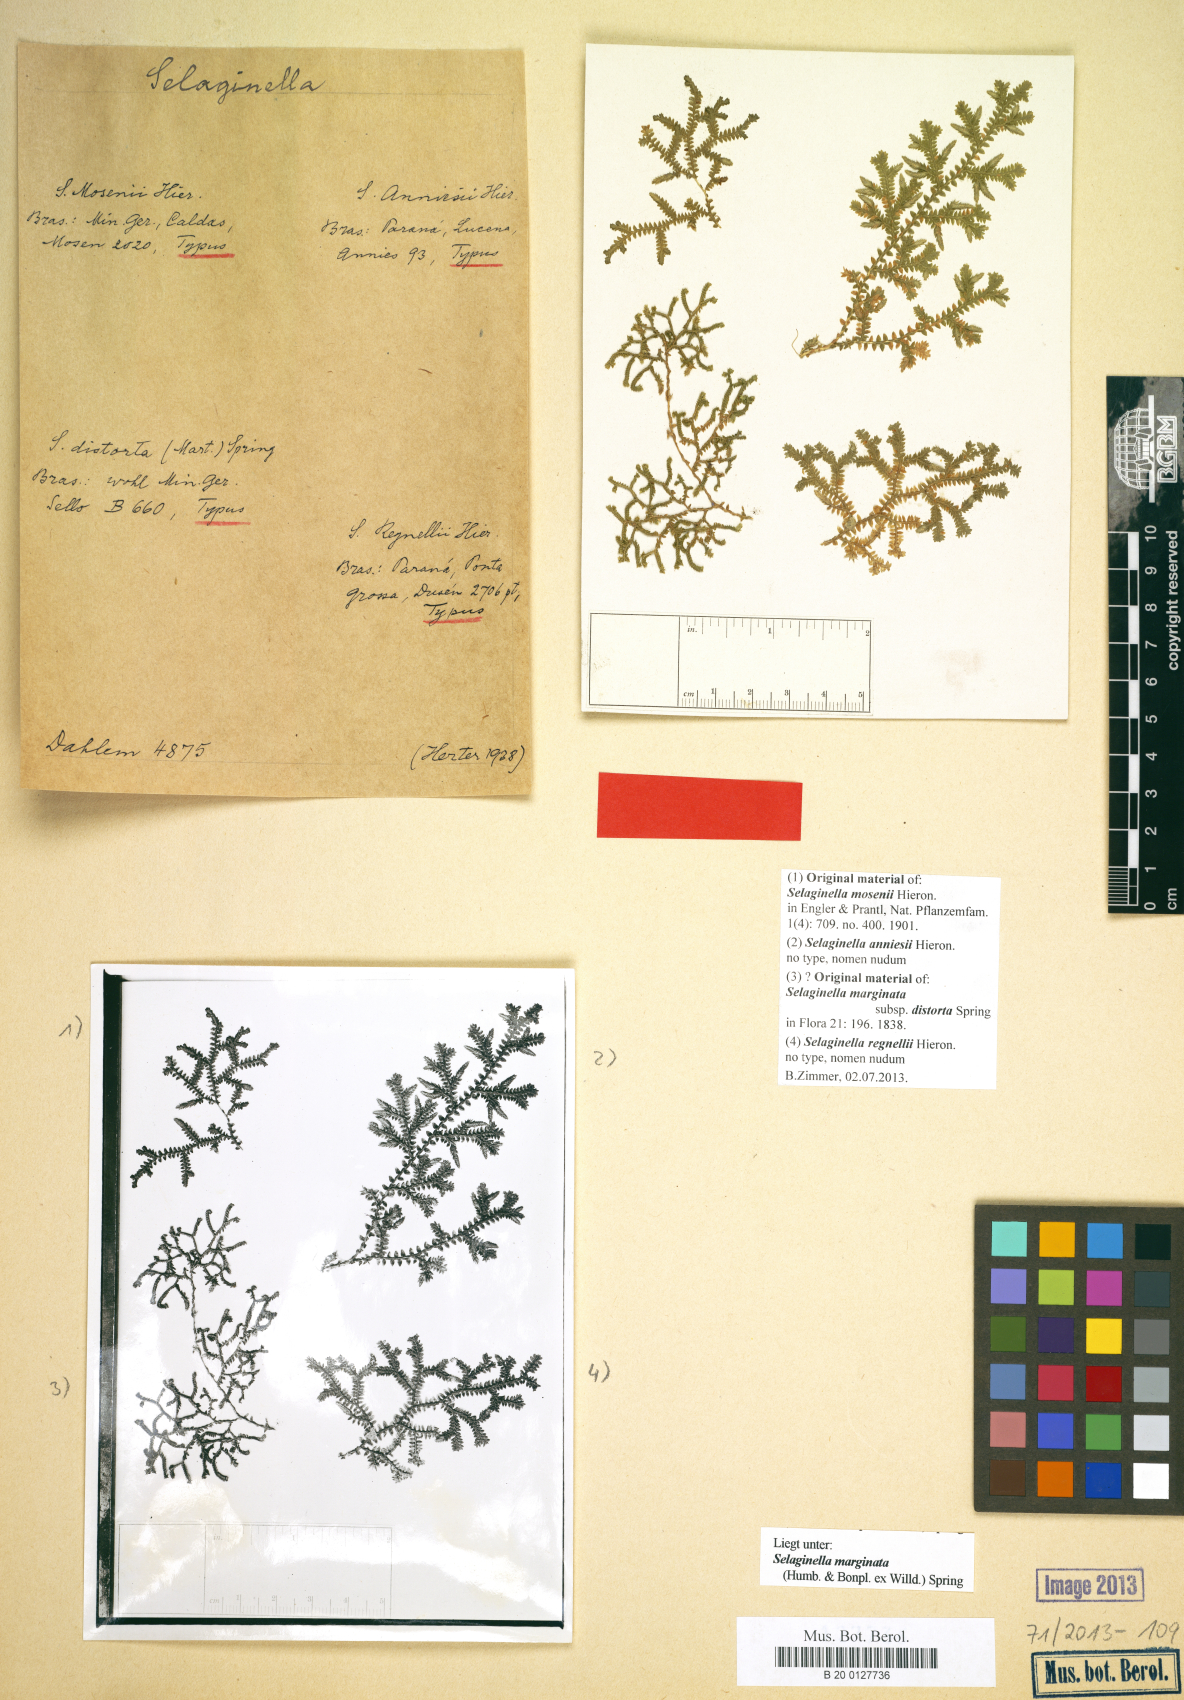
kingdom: Plantae
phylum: Tracheophyta
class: Lycopodiopsida
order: Selaginellales
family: Selaginellaceae
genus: Selaginella
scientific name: Selaginella marginata
